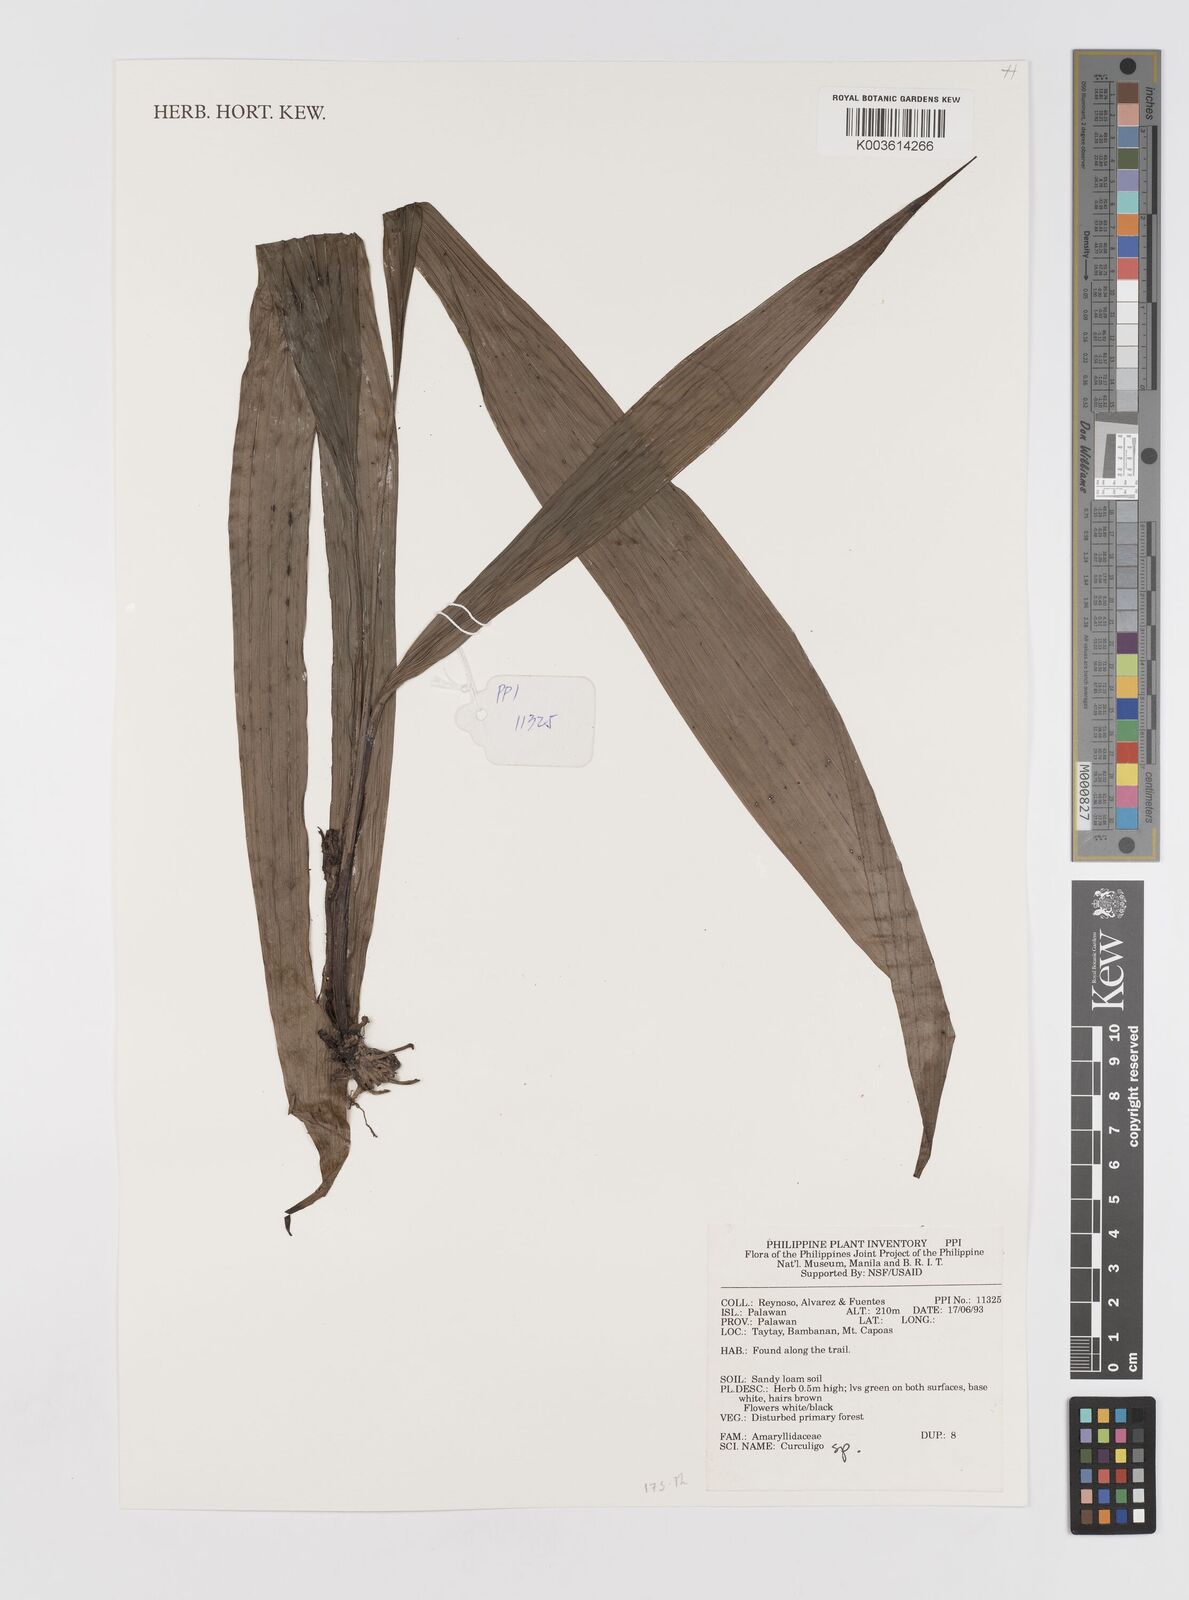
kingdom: Plantae
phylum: Tracheophyta
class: Liliopsida
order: Asparagales
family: Hypoxidaceae
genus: Curculigo
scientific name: Curculigo
